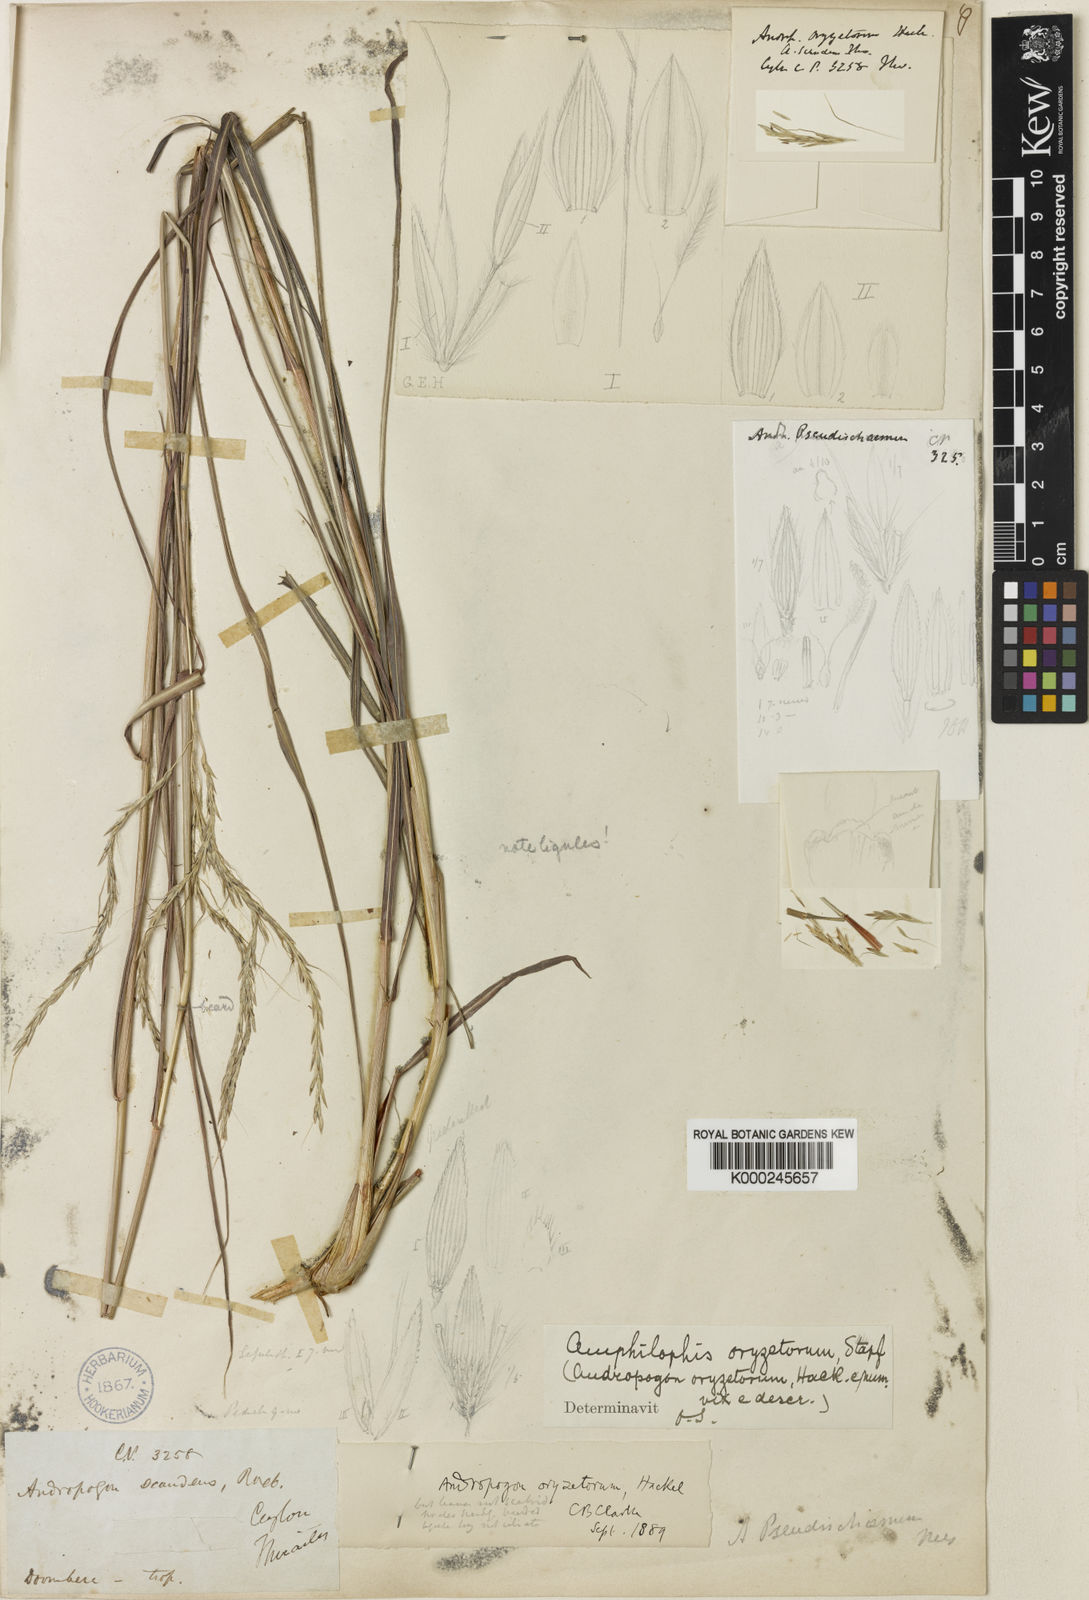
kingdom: Plantae
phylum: Tracheophyta
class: Liliopsida
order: Poales
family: Poaceae
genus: Bothriochloa
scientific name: Bothriochloa pseudoischaemum
